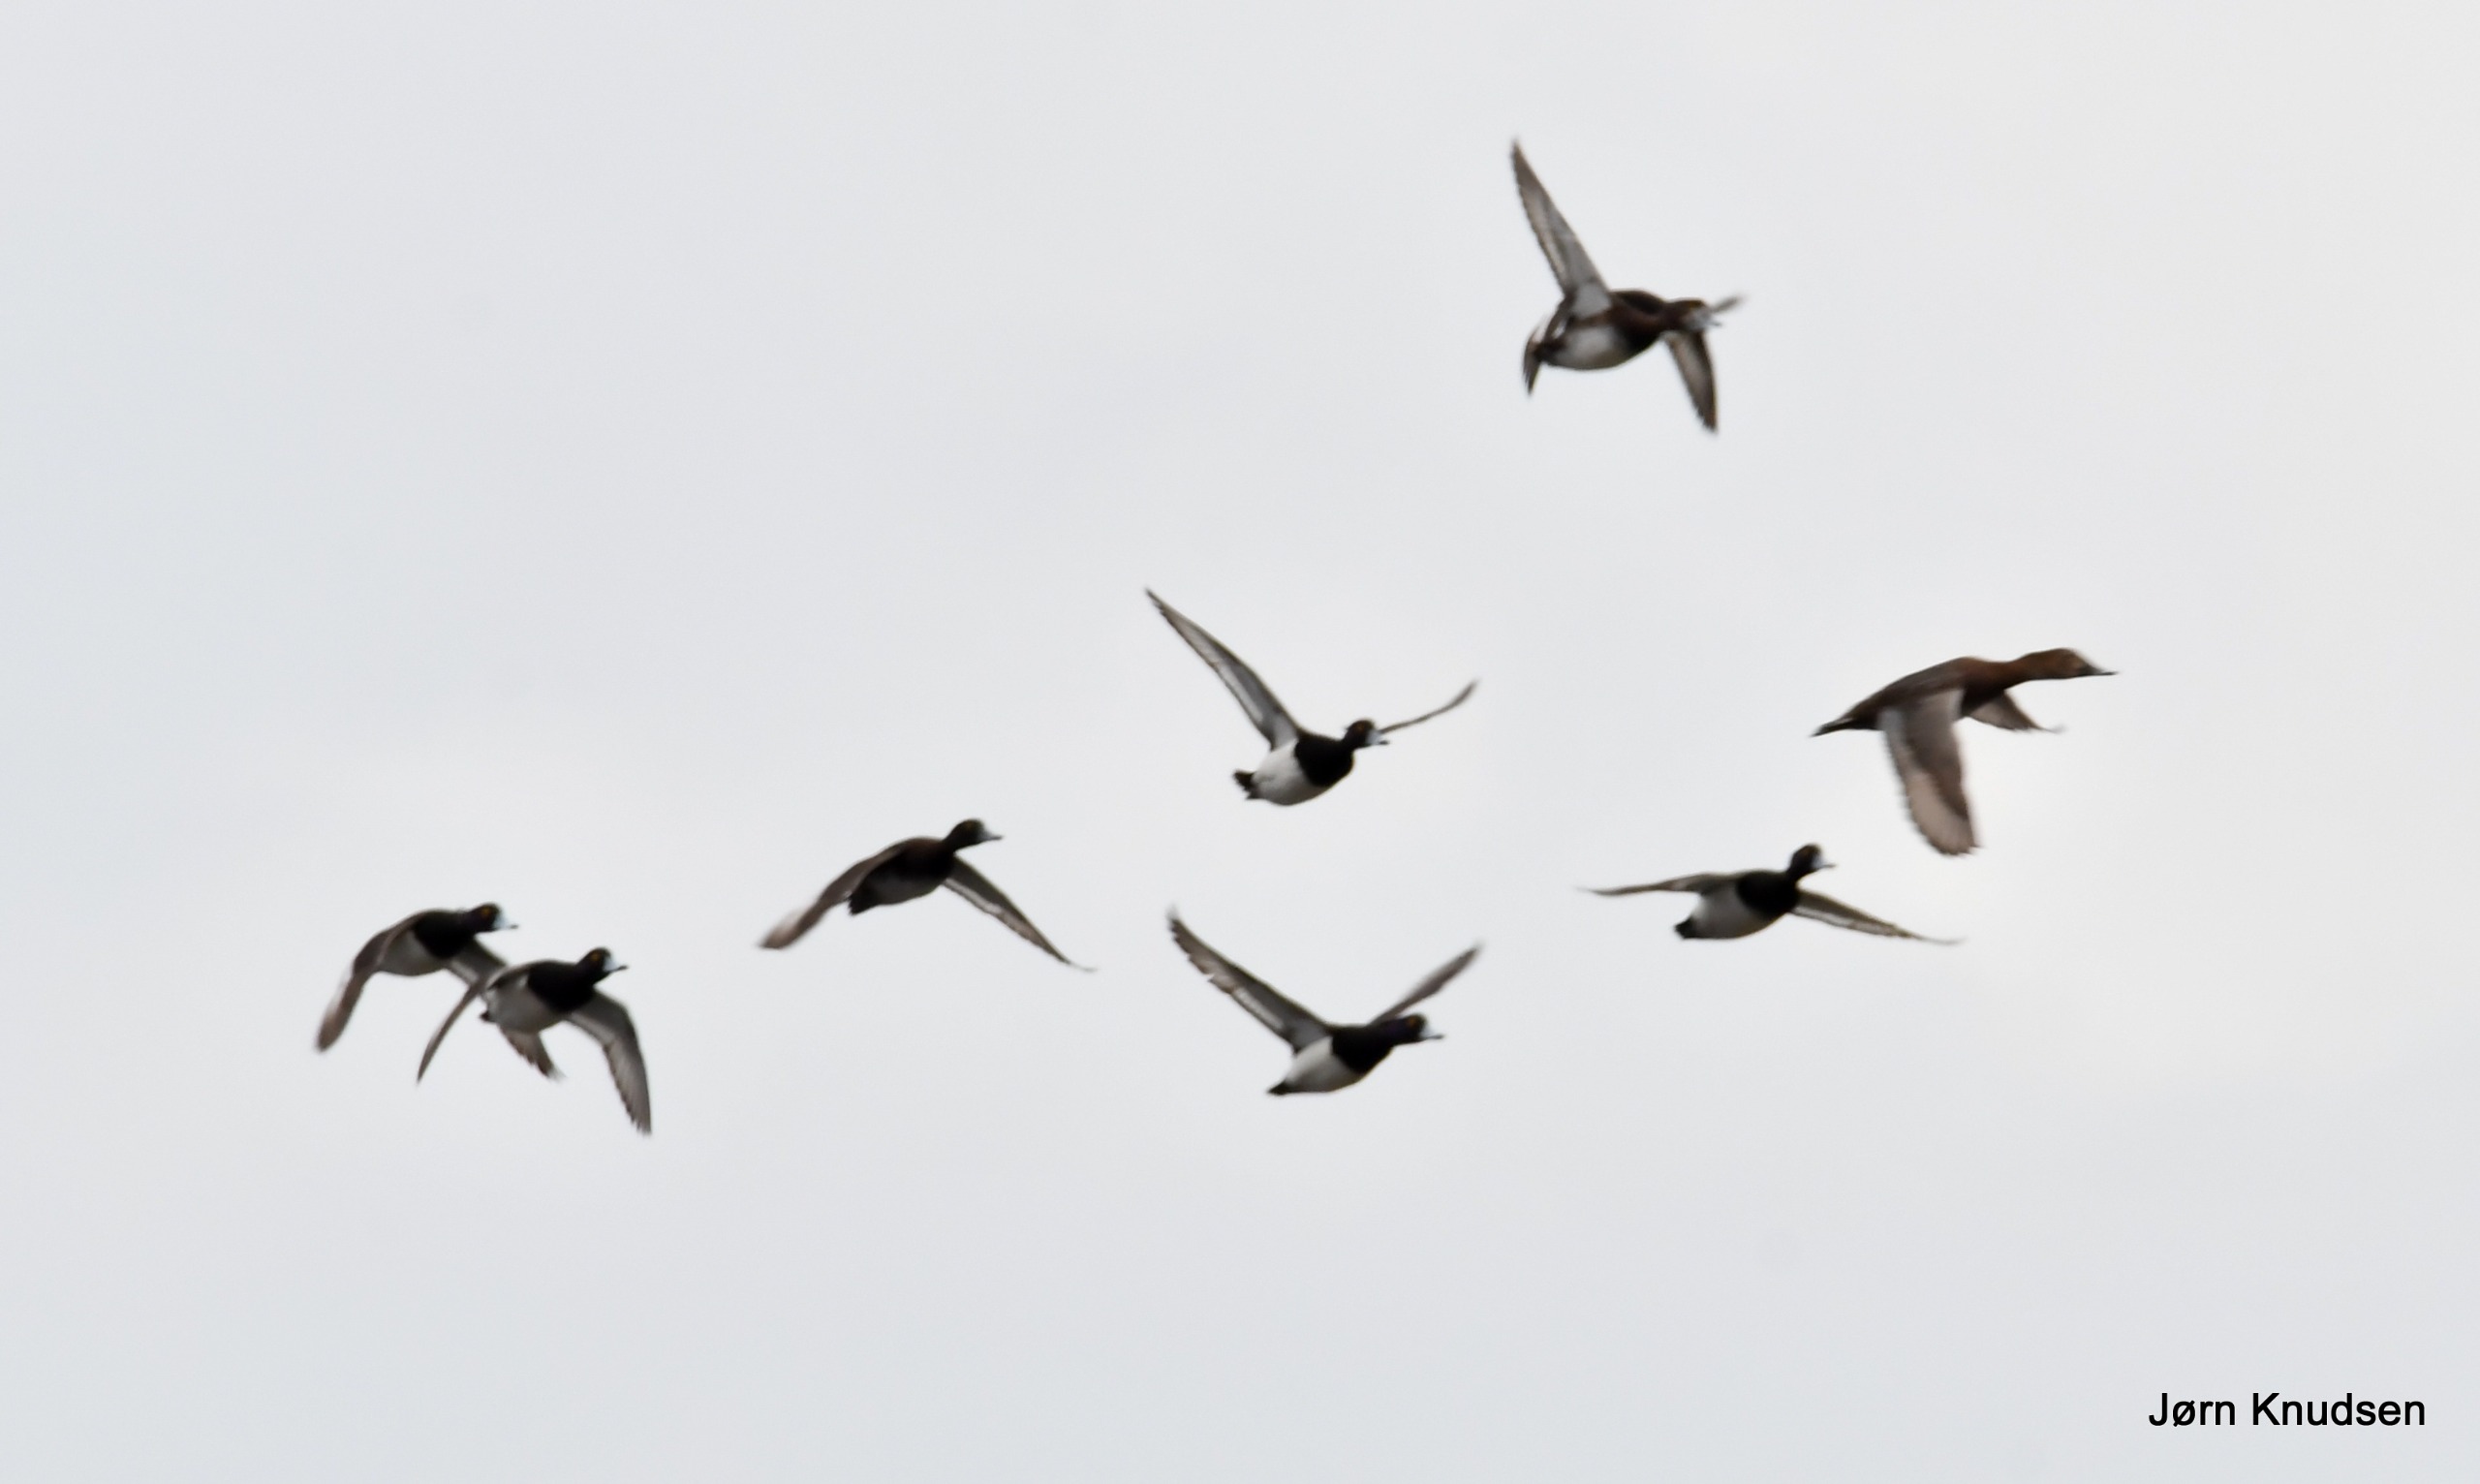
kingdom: Animalia
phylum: Chordata
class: Aves
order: Anseriformes
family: Anatidae
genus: Aythya
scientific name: Aythya fuligula
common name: Troldand
